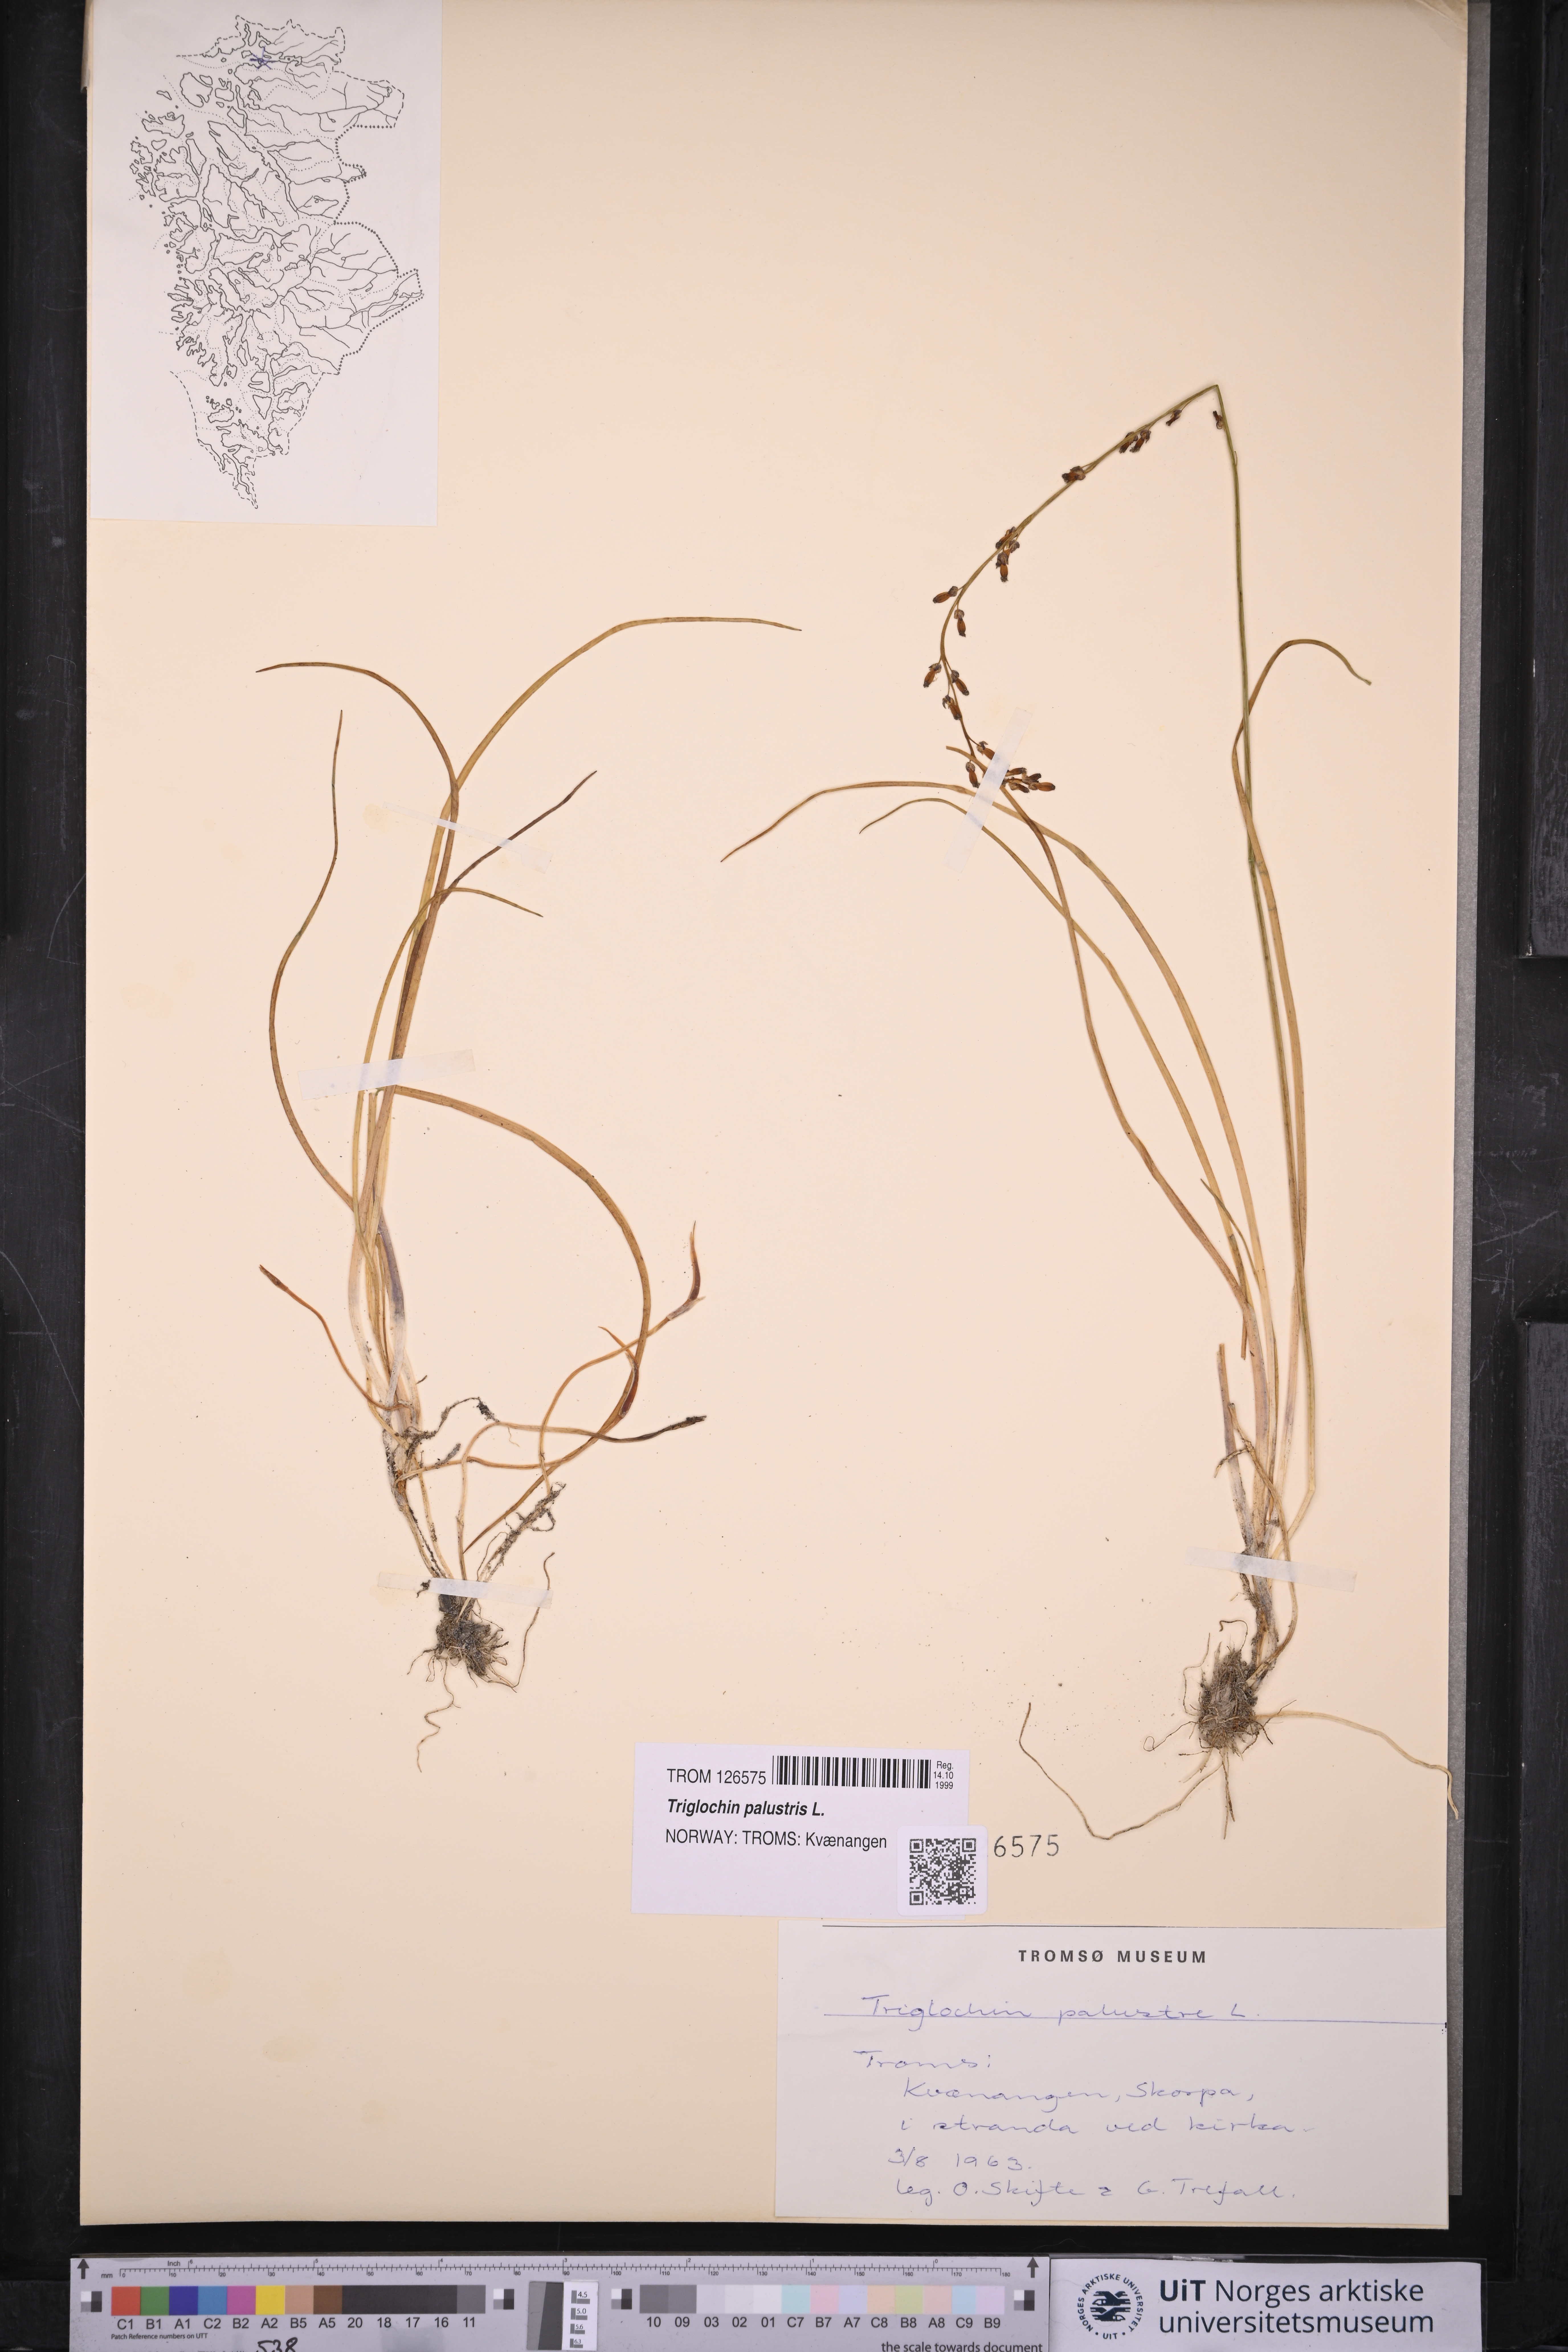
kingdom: Plantae
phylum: Tracheophyta
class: Liliopsida
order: Alismatales
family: Juncaginaceae
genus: Triglochin
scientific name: Triglochin palustris
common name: Marsh arrowgrass
